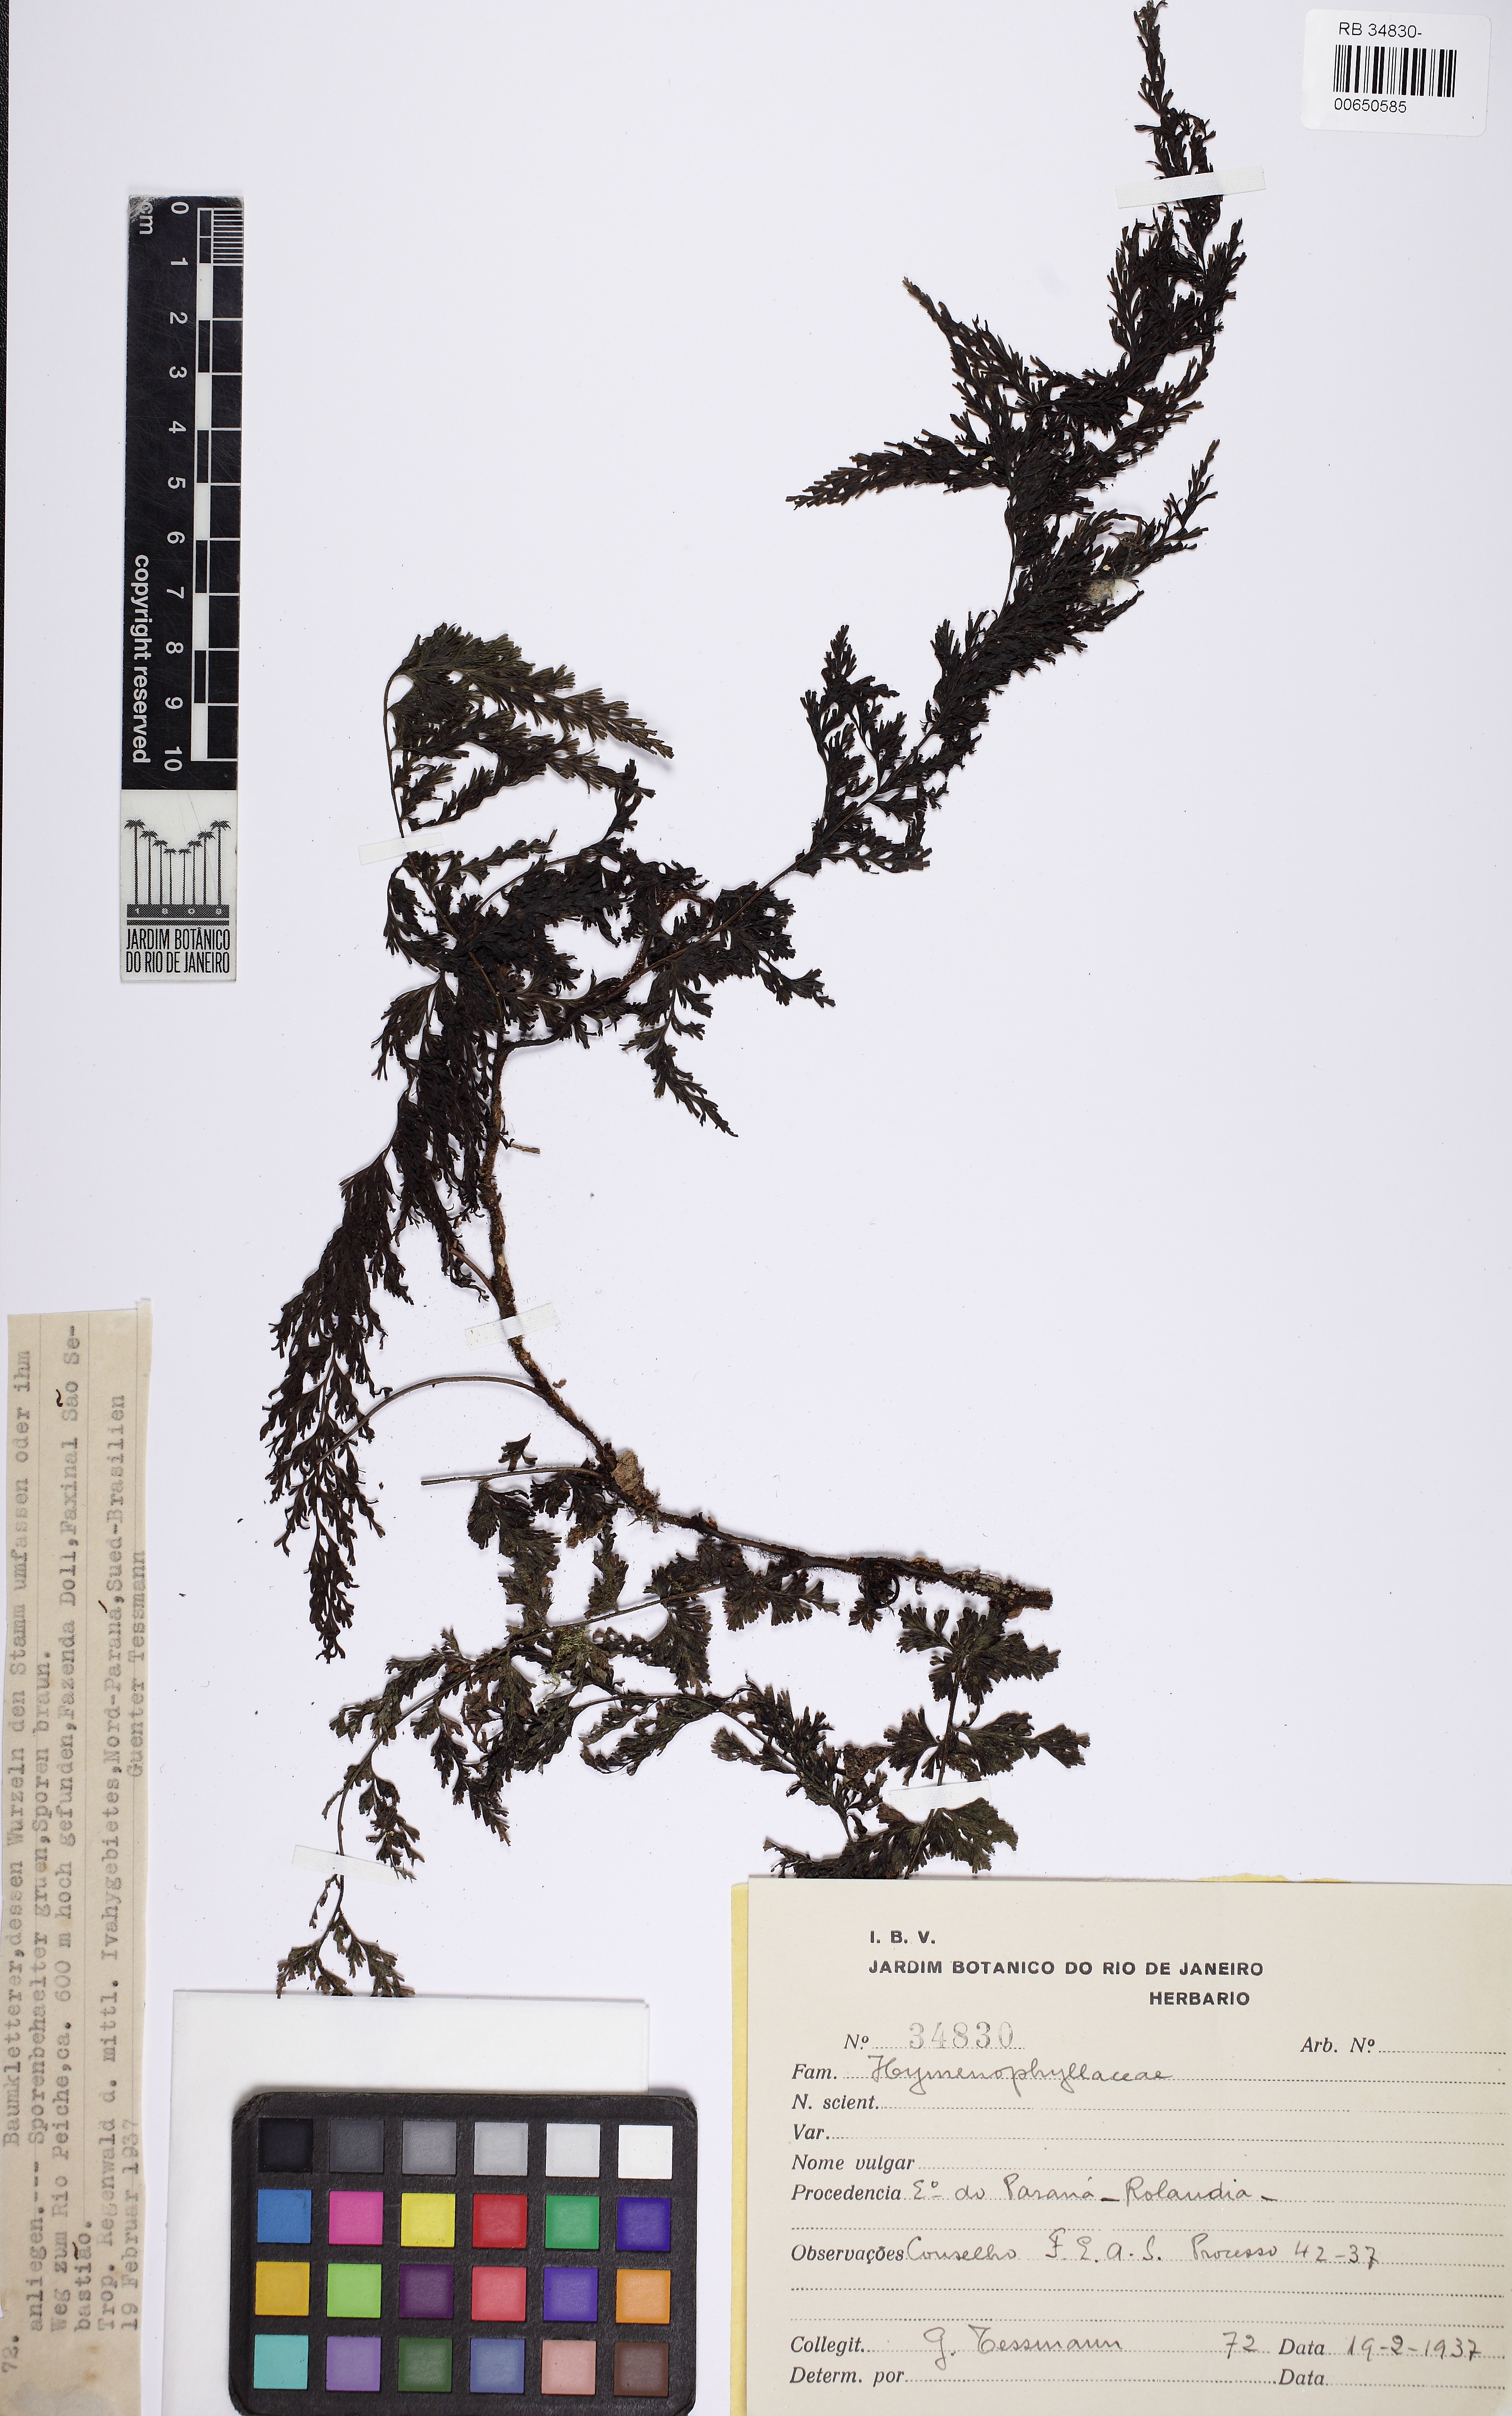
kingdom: Plantae
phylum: Tracheophyta
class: Polypodiopsida
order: Hymenophyllales
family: Hymenophyllaceae
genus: Vandenboschia
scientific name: Vandenboschia radicans
